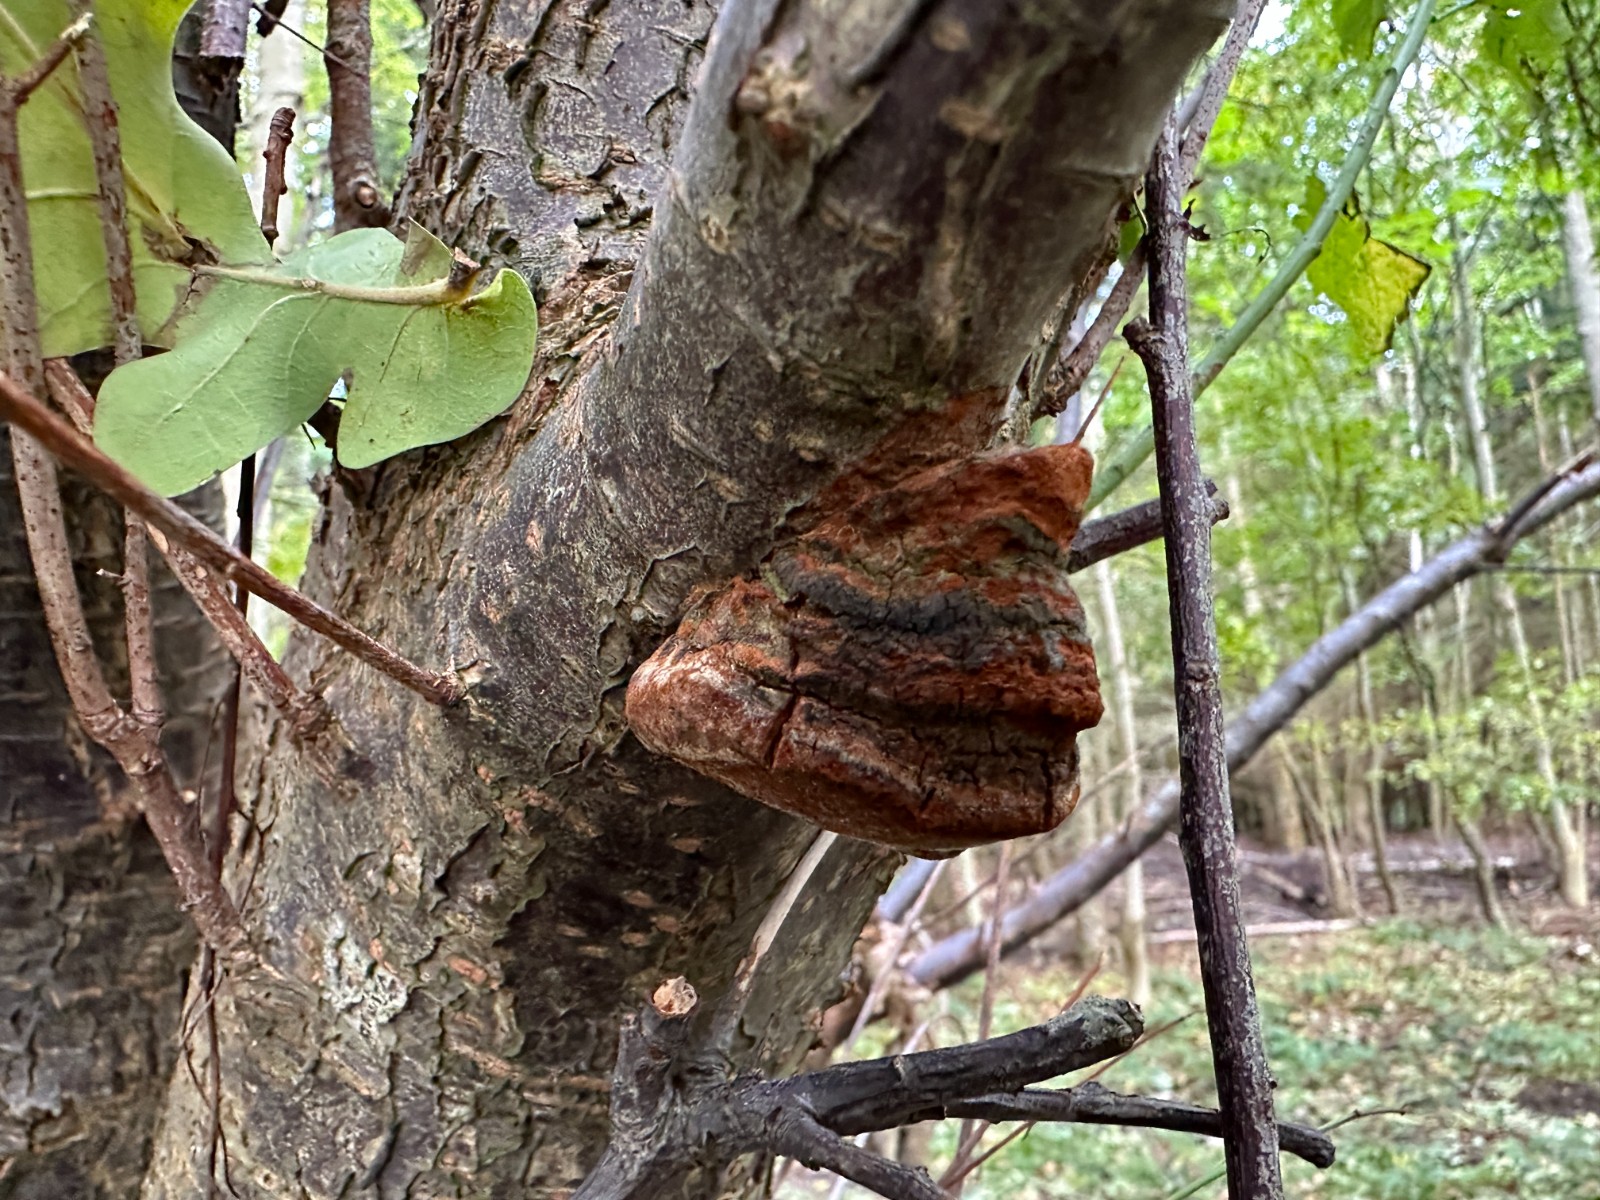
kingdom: Fungi
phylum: Basidiomycota
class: Agaricomycetes
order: Hymenochaetales
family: Hymenochaetaceae
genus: Phellinus
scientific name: Phellinus pomaceus
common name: blomme-ildporesvamp
